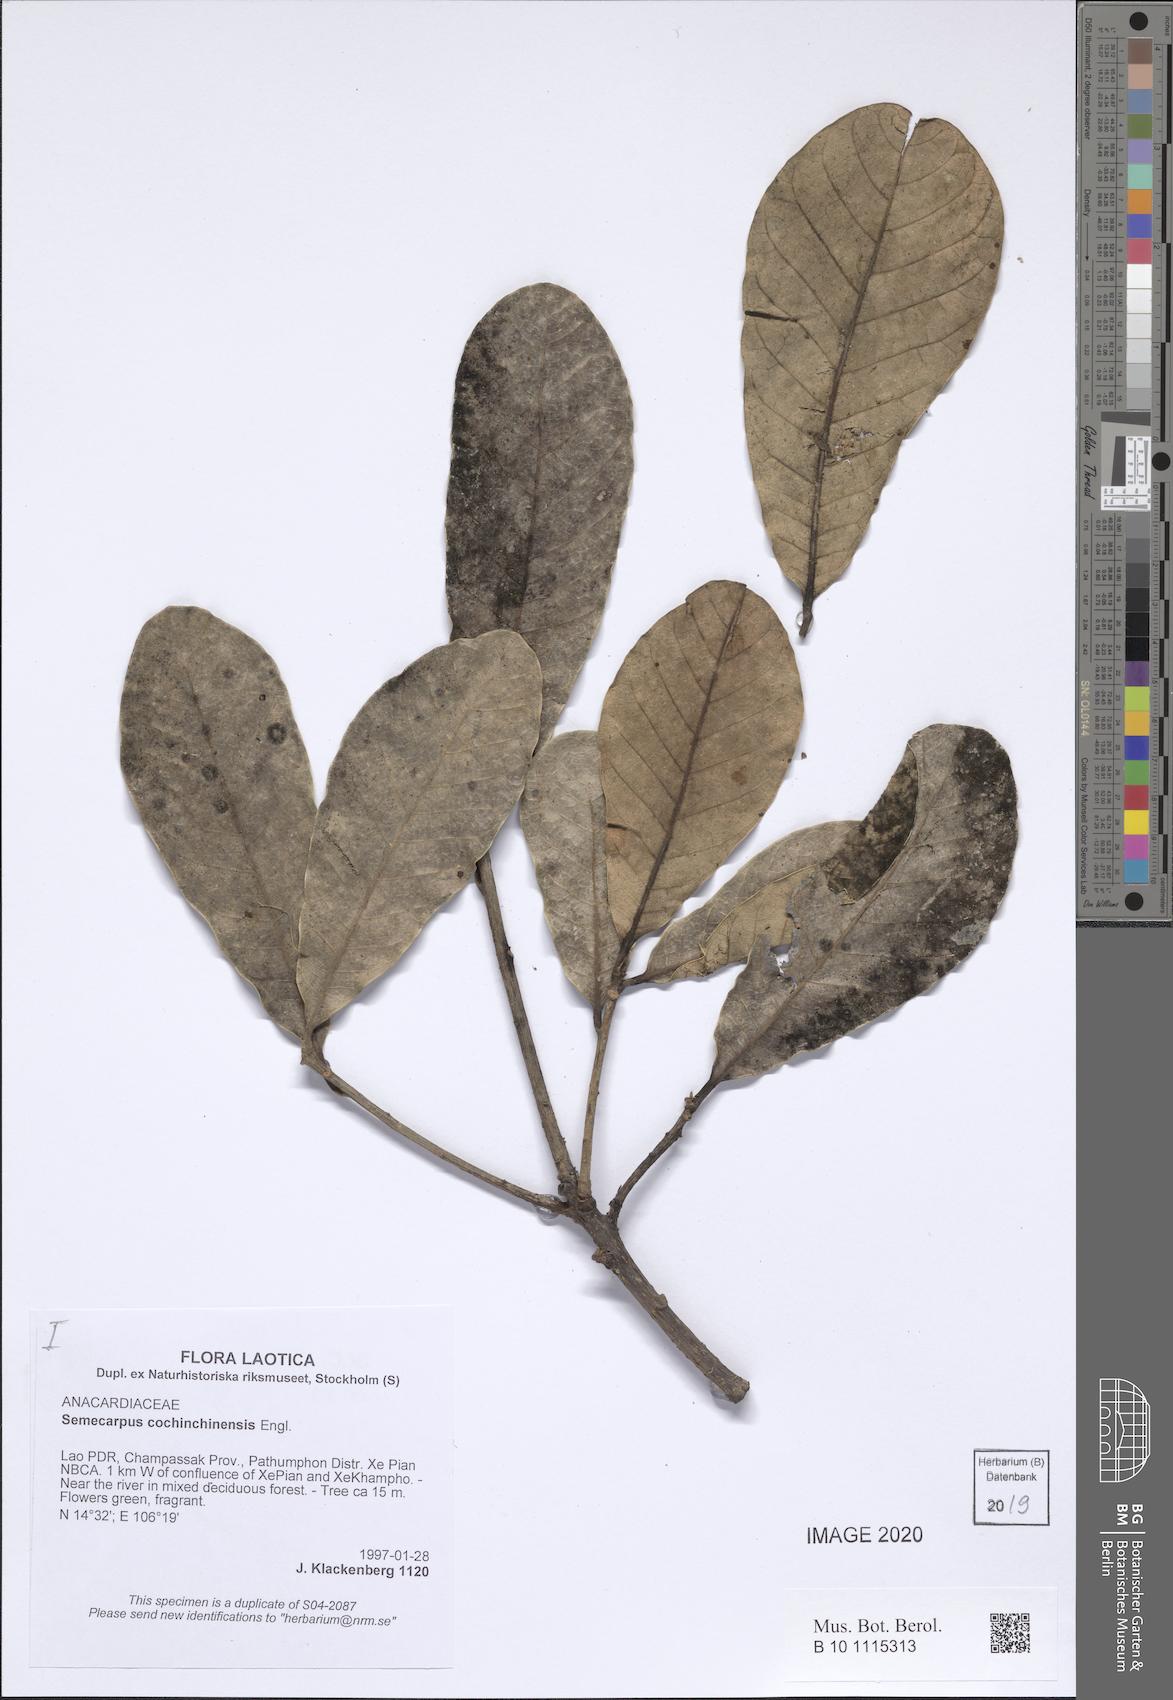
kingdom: Plantae
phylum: Tracheophyta
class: Magnoliopsida
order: Sapindales
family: Anacardiaceae
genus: Semecarpus
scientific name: Semecarpus cochinchinensis
